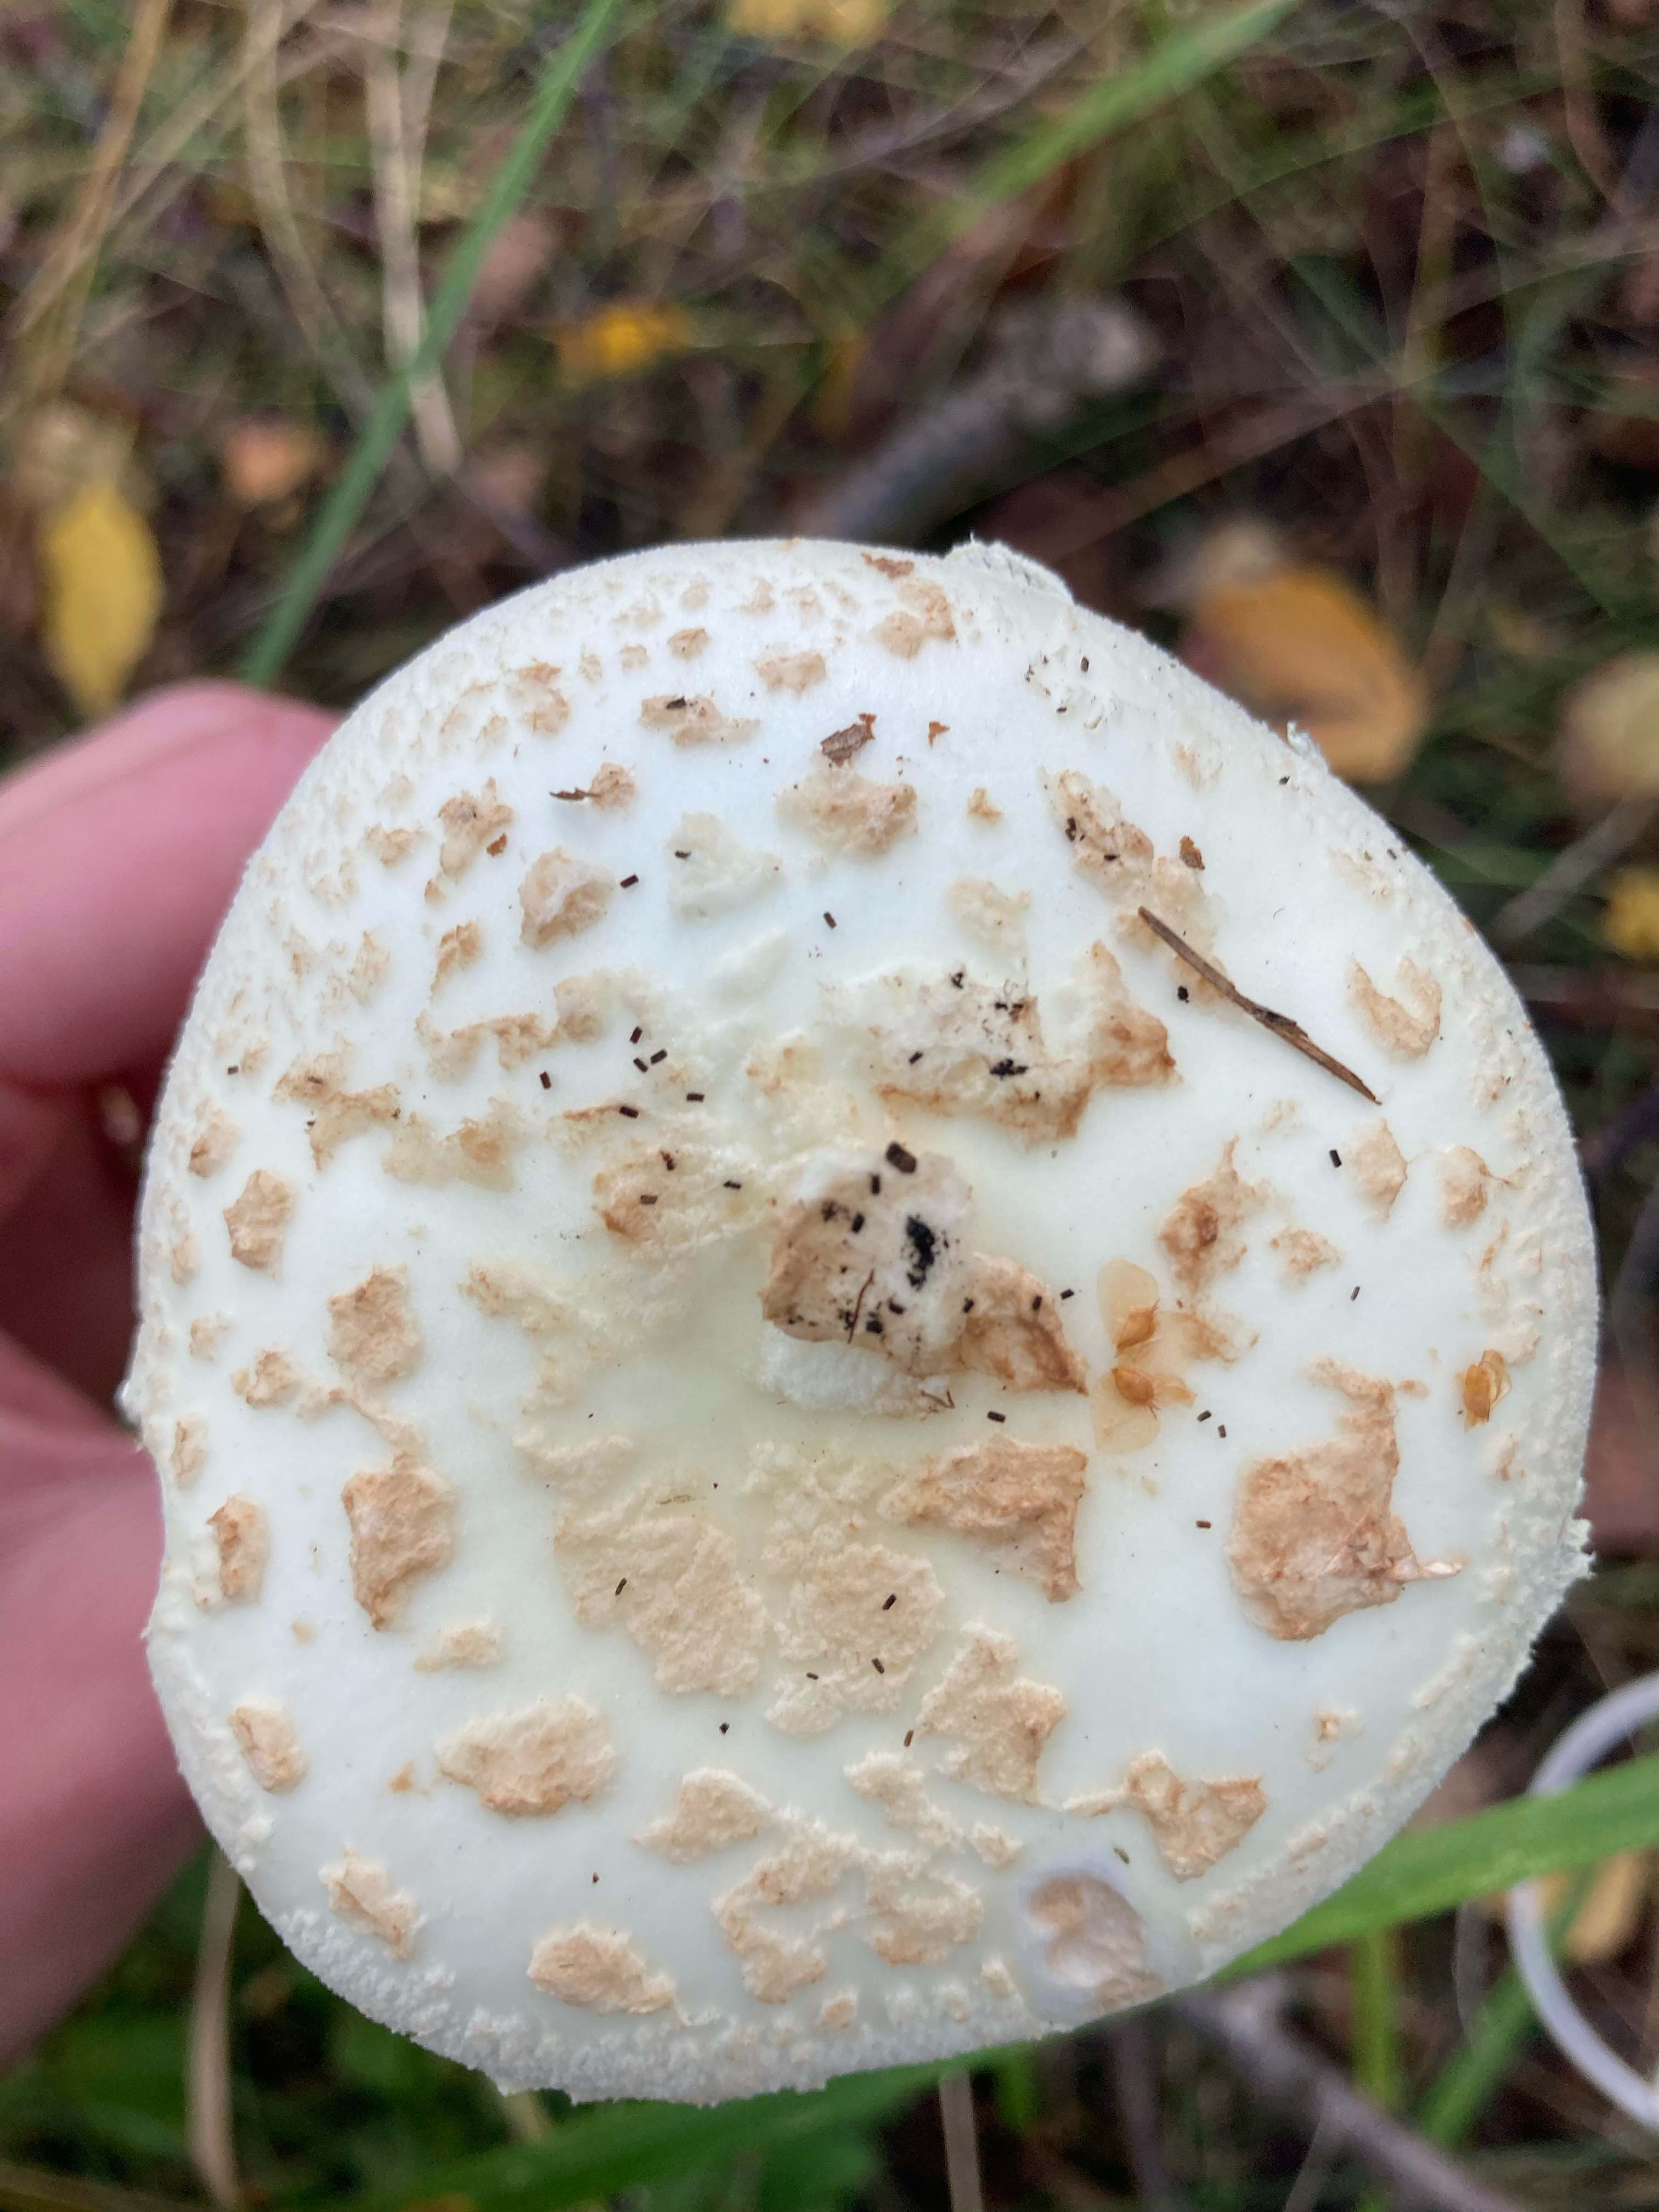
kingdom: Fungi
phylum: Basidiomycota
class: Agaricomycetes
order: Agaricales
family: Amanitaceae
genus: Amanita
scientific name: Amanita citrina
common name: kugleknoldet fluesvamp
